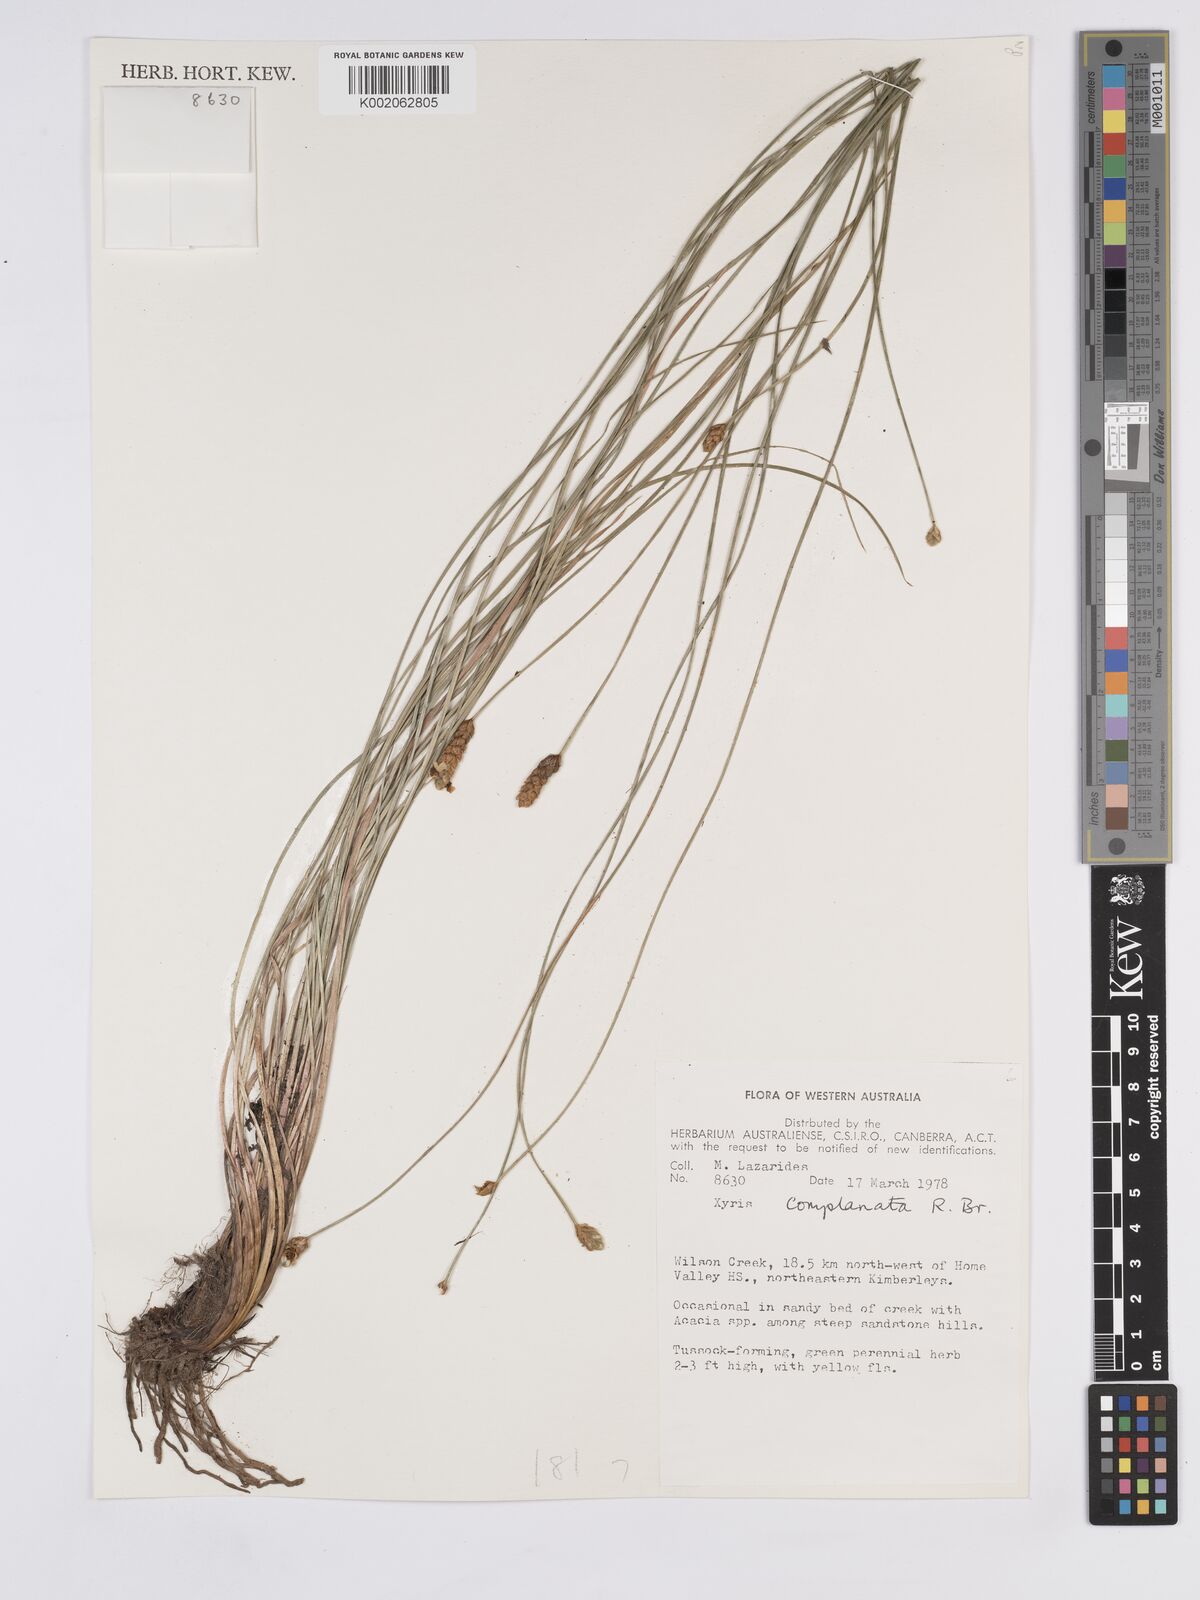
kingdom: Plantae
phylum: Tracheophyta
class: Liliopsida
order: Poales
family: Xyridaceae
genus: Xyris
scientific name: Xyris complanata
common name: Hawai'i yelloweyed grass
